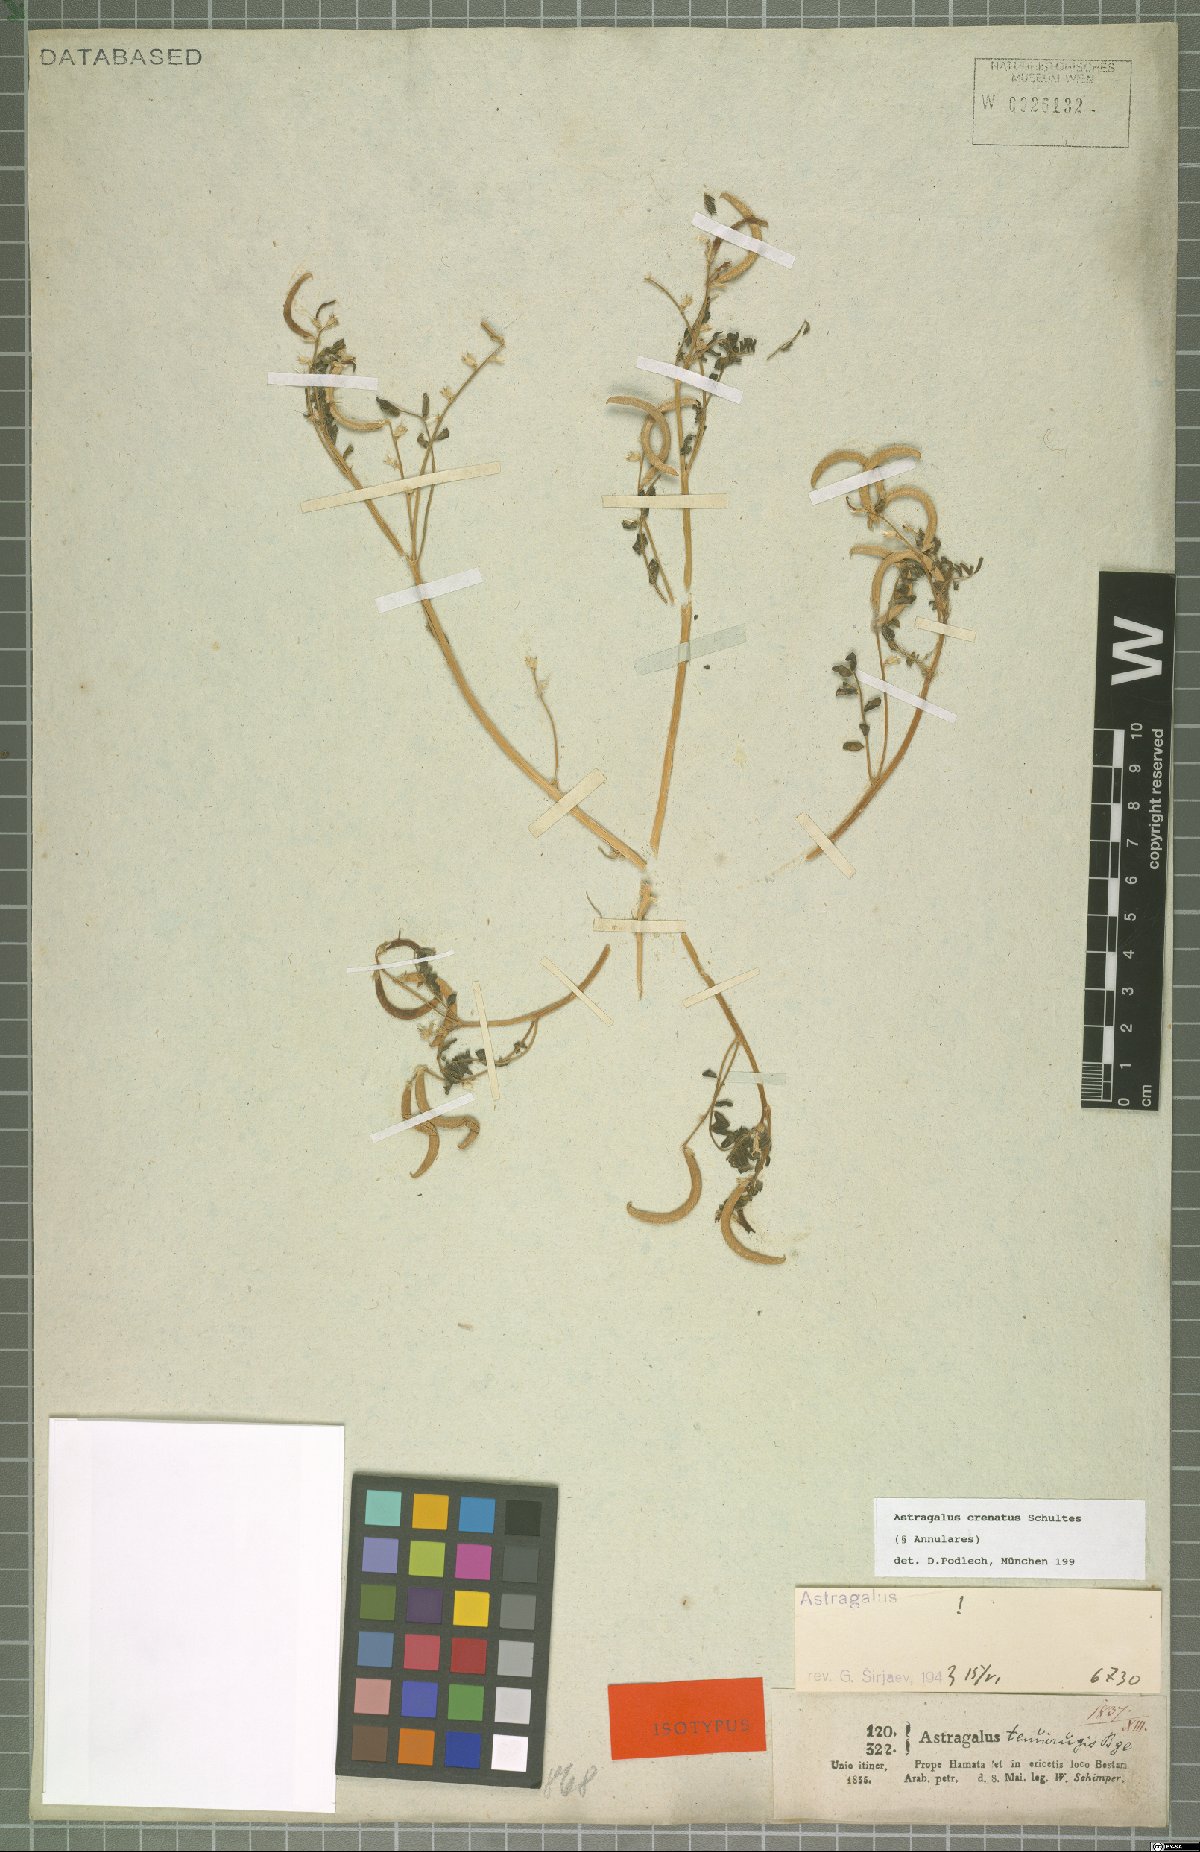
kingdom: Plantae
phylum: Tracheophyta
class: Magnoliopsida
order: Fabales
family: Fabaceae
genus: Astragalus
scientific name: Astragalus crenatus
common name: Milk vetch
